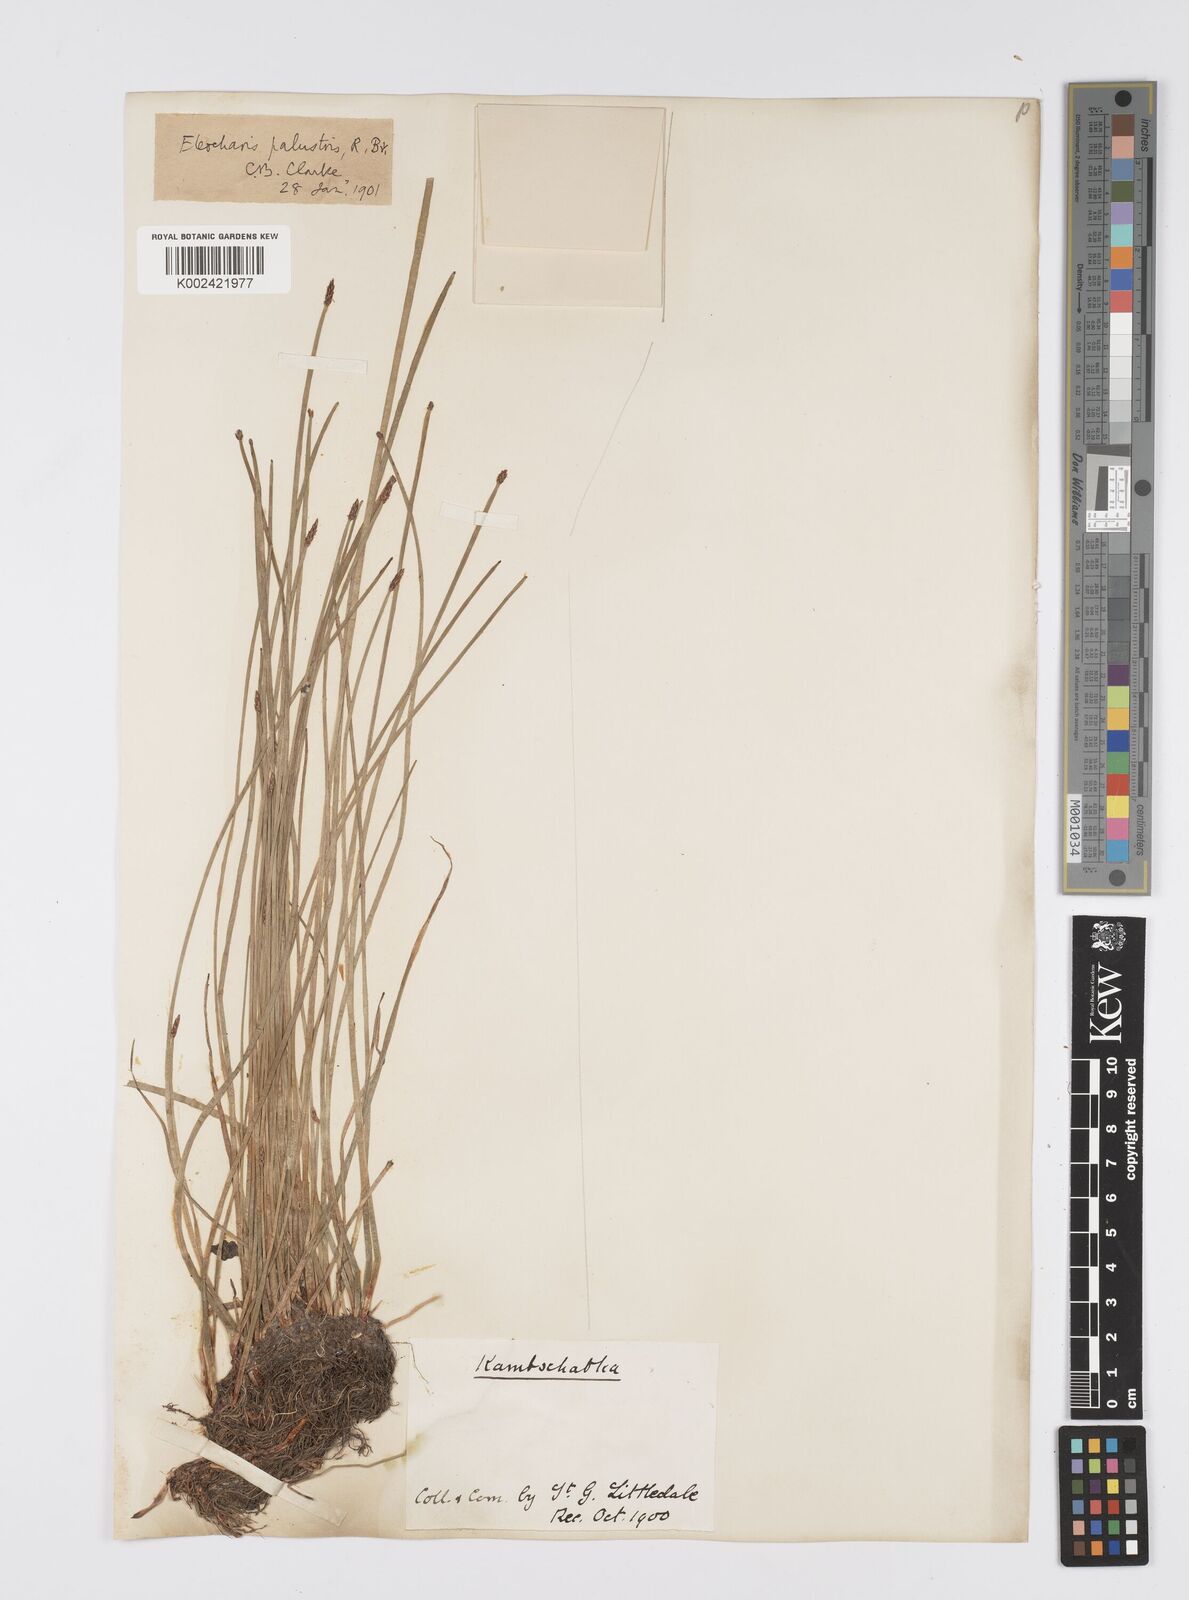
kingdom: Plantae
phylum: Tracheophyta
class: Liliopsida
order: Poales
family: Cyperaceae
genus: Eleocharis
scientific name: Eleocharis palustris
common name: Common spike-rush
